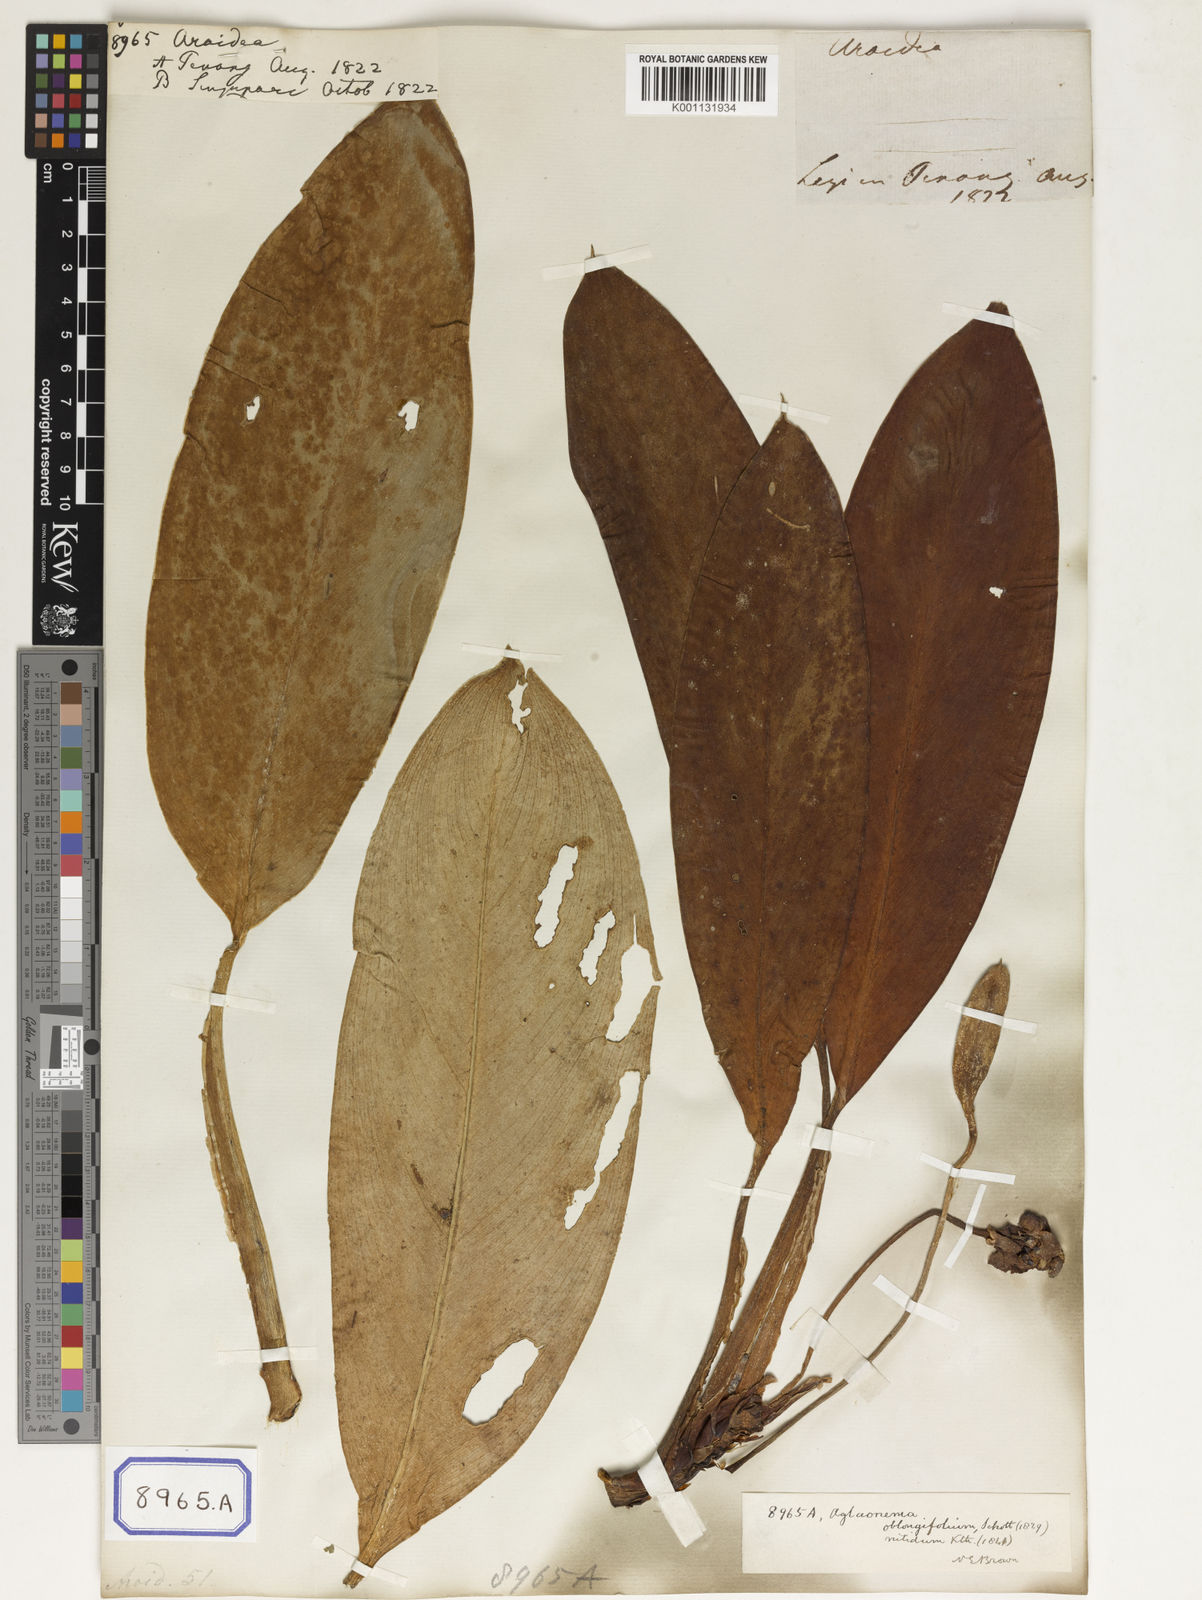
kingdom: Plantae
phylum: Tracheophyta
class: Liliopsida
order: Alismatales
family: Araceae
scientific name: Araceae
